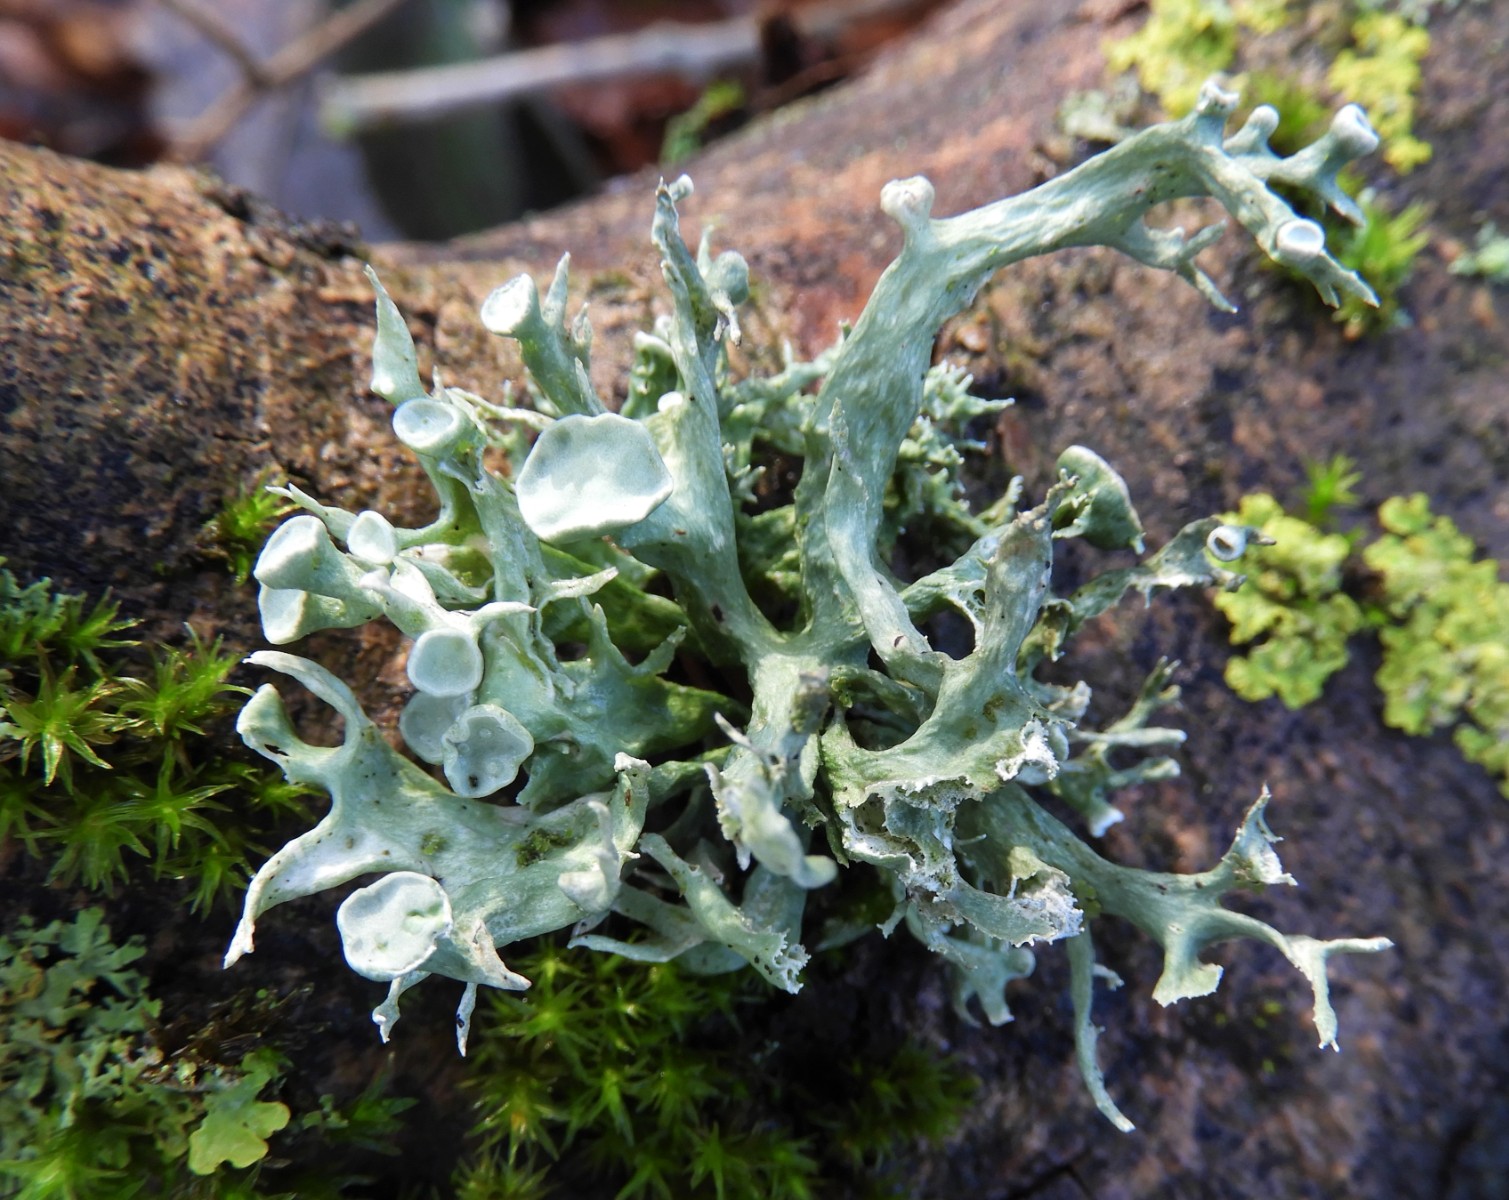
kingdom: Fungi
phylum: Ascomycota
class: Lecanoromycetes
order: Lecanorales
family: Ramalinaceae
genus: Ramalina
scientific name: Ramalina fastigiata
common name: tue-grenlav
